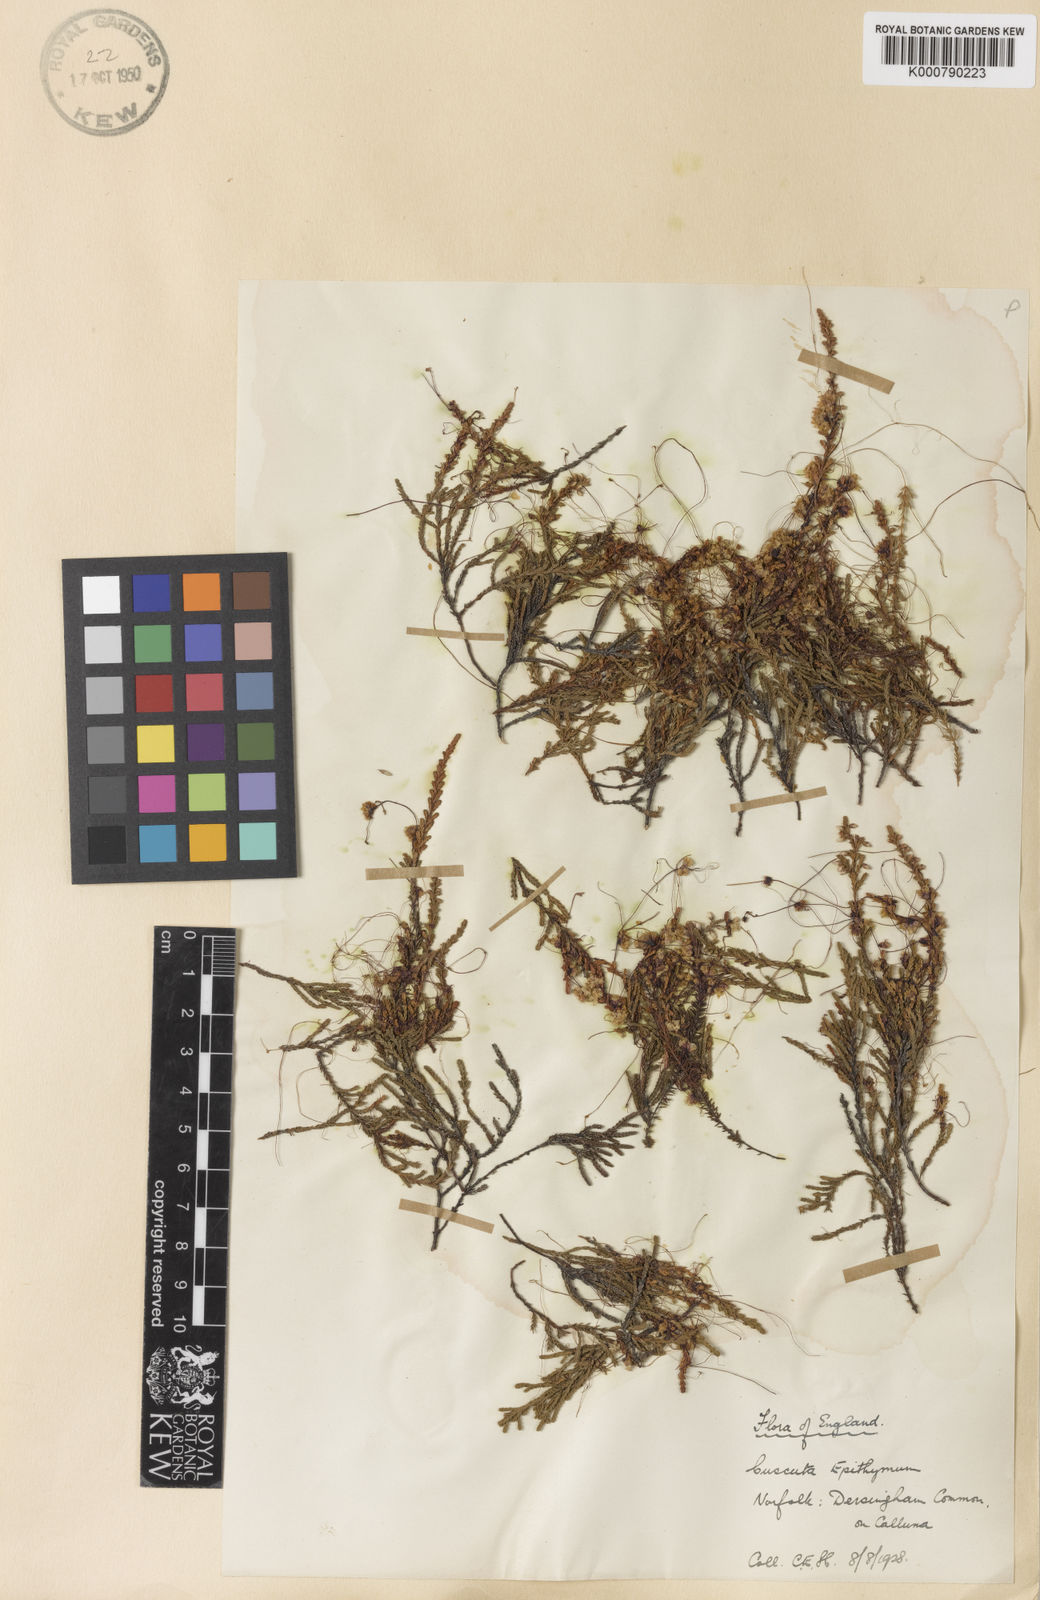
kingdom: Plantae
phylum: Tracheophyta
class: Magnoliopsida
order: Solanales
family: Convolvulaceae
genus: Cuscuta
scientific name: Cuscuta epithymum
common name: Clover dodder
